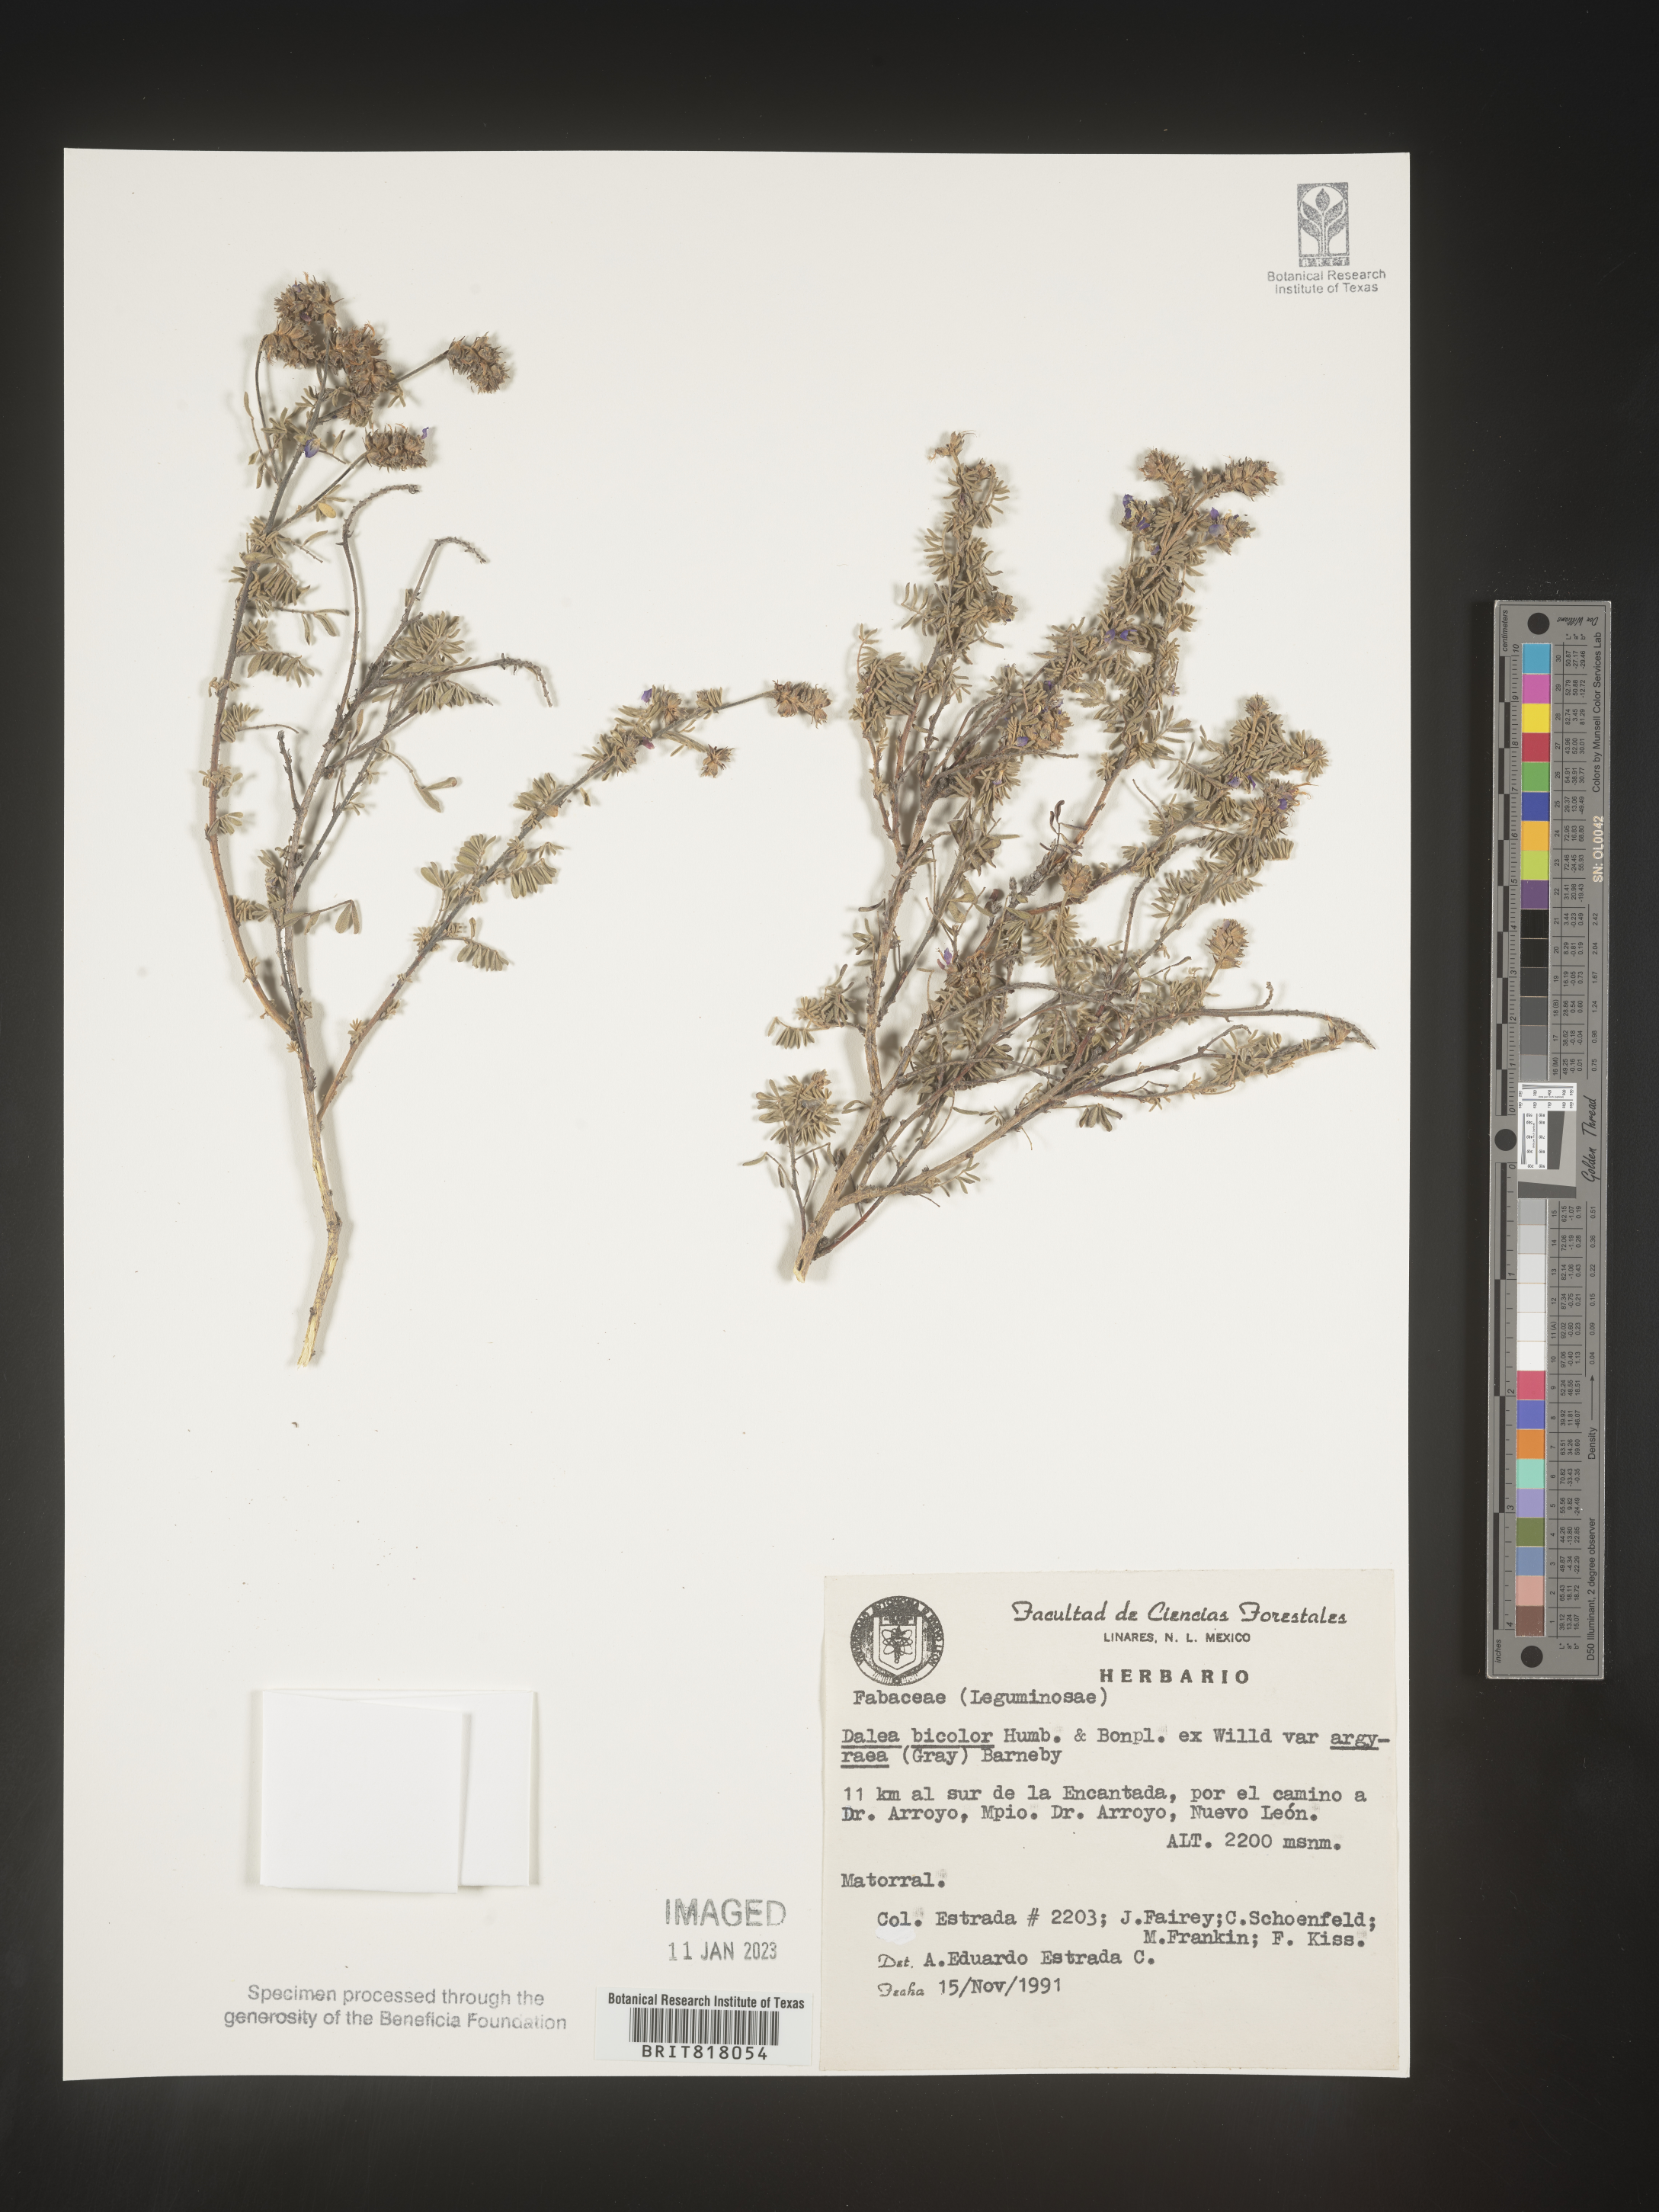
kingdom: Plantae
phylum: Tracheophyta
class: Magnoliopsida
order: Fabales
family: Fabaceae
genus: Dalea
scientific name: Dalea
